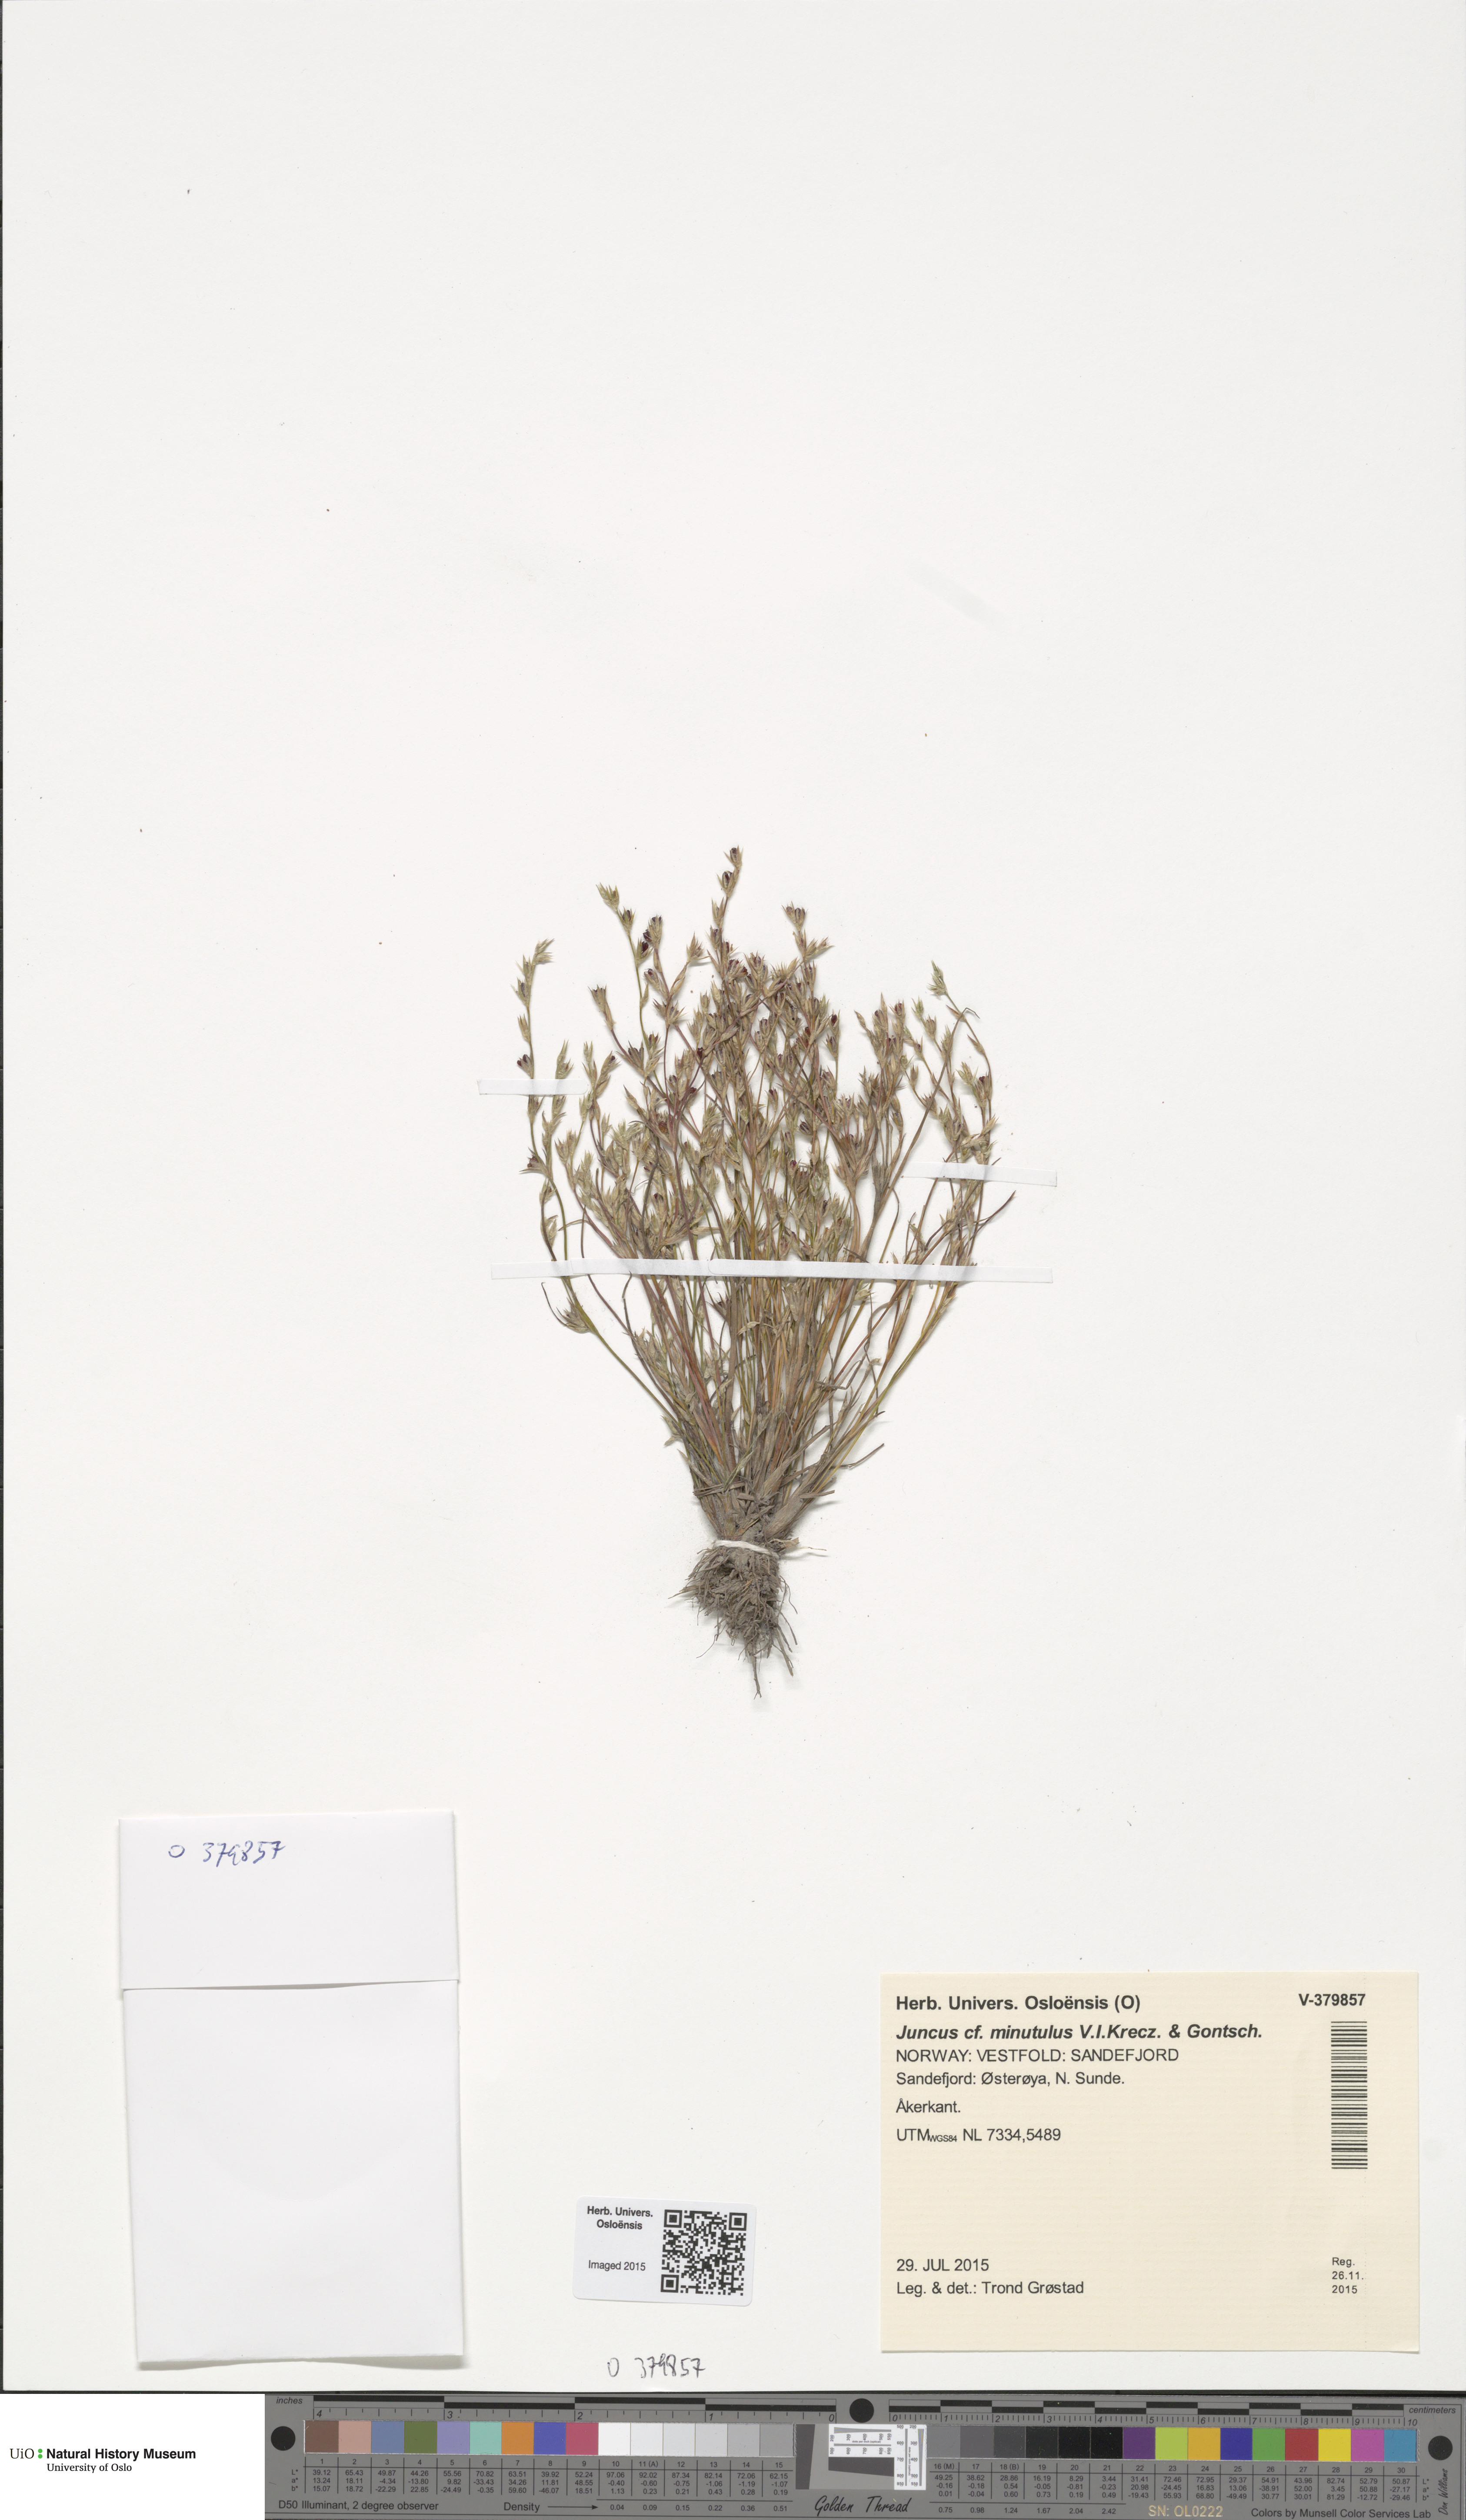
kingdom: Plantae
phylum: Tracheophyta
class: Liliopsida
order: Poales
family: Juncaceae
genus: Juncus
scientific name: Juncus minutulus
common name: Minute rush
